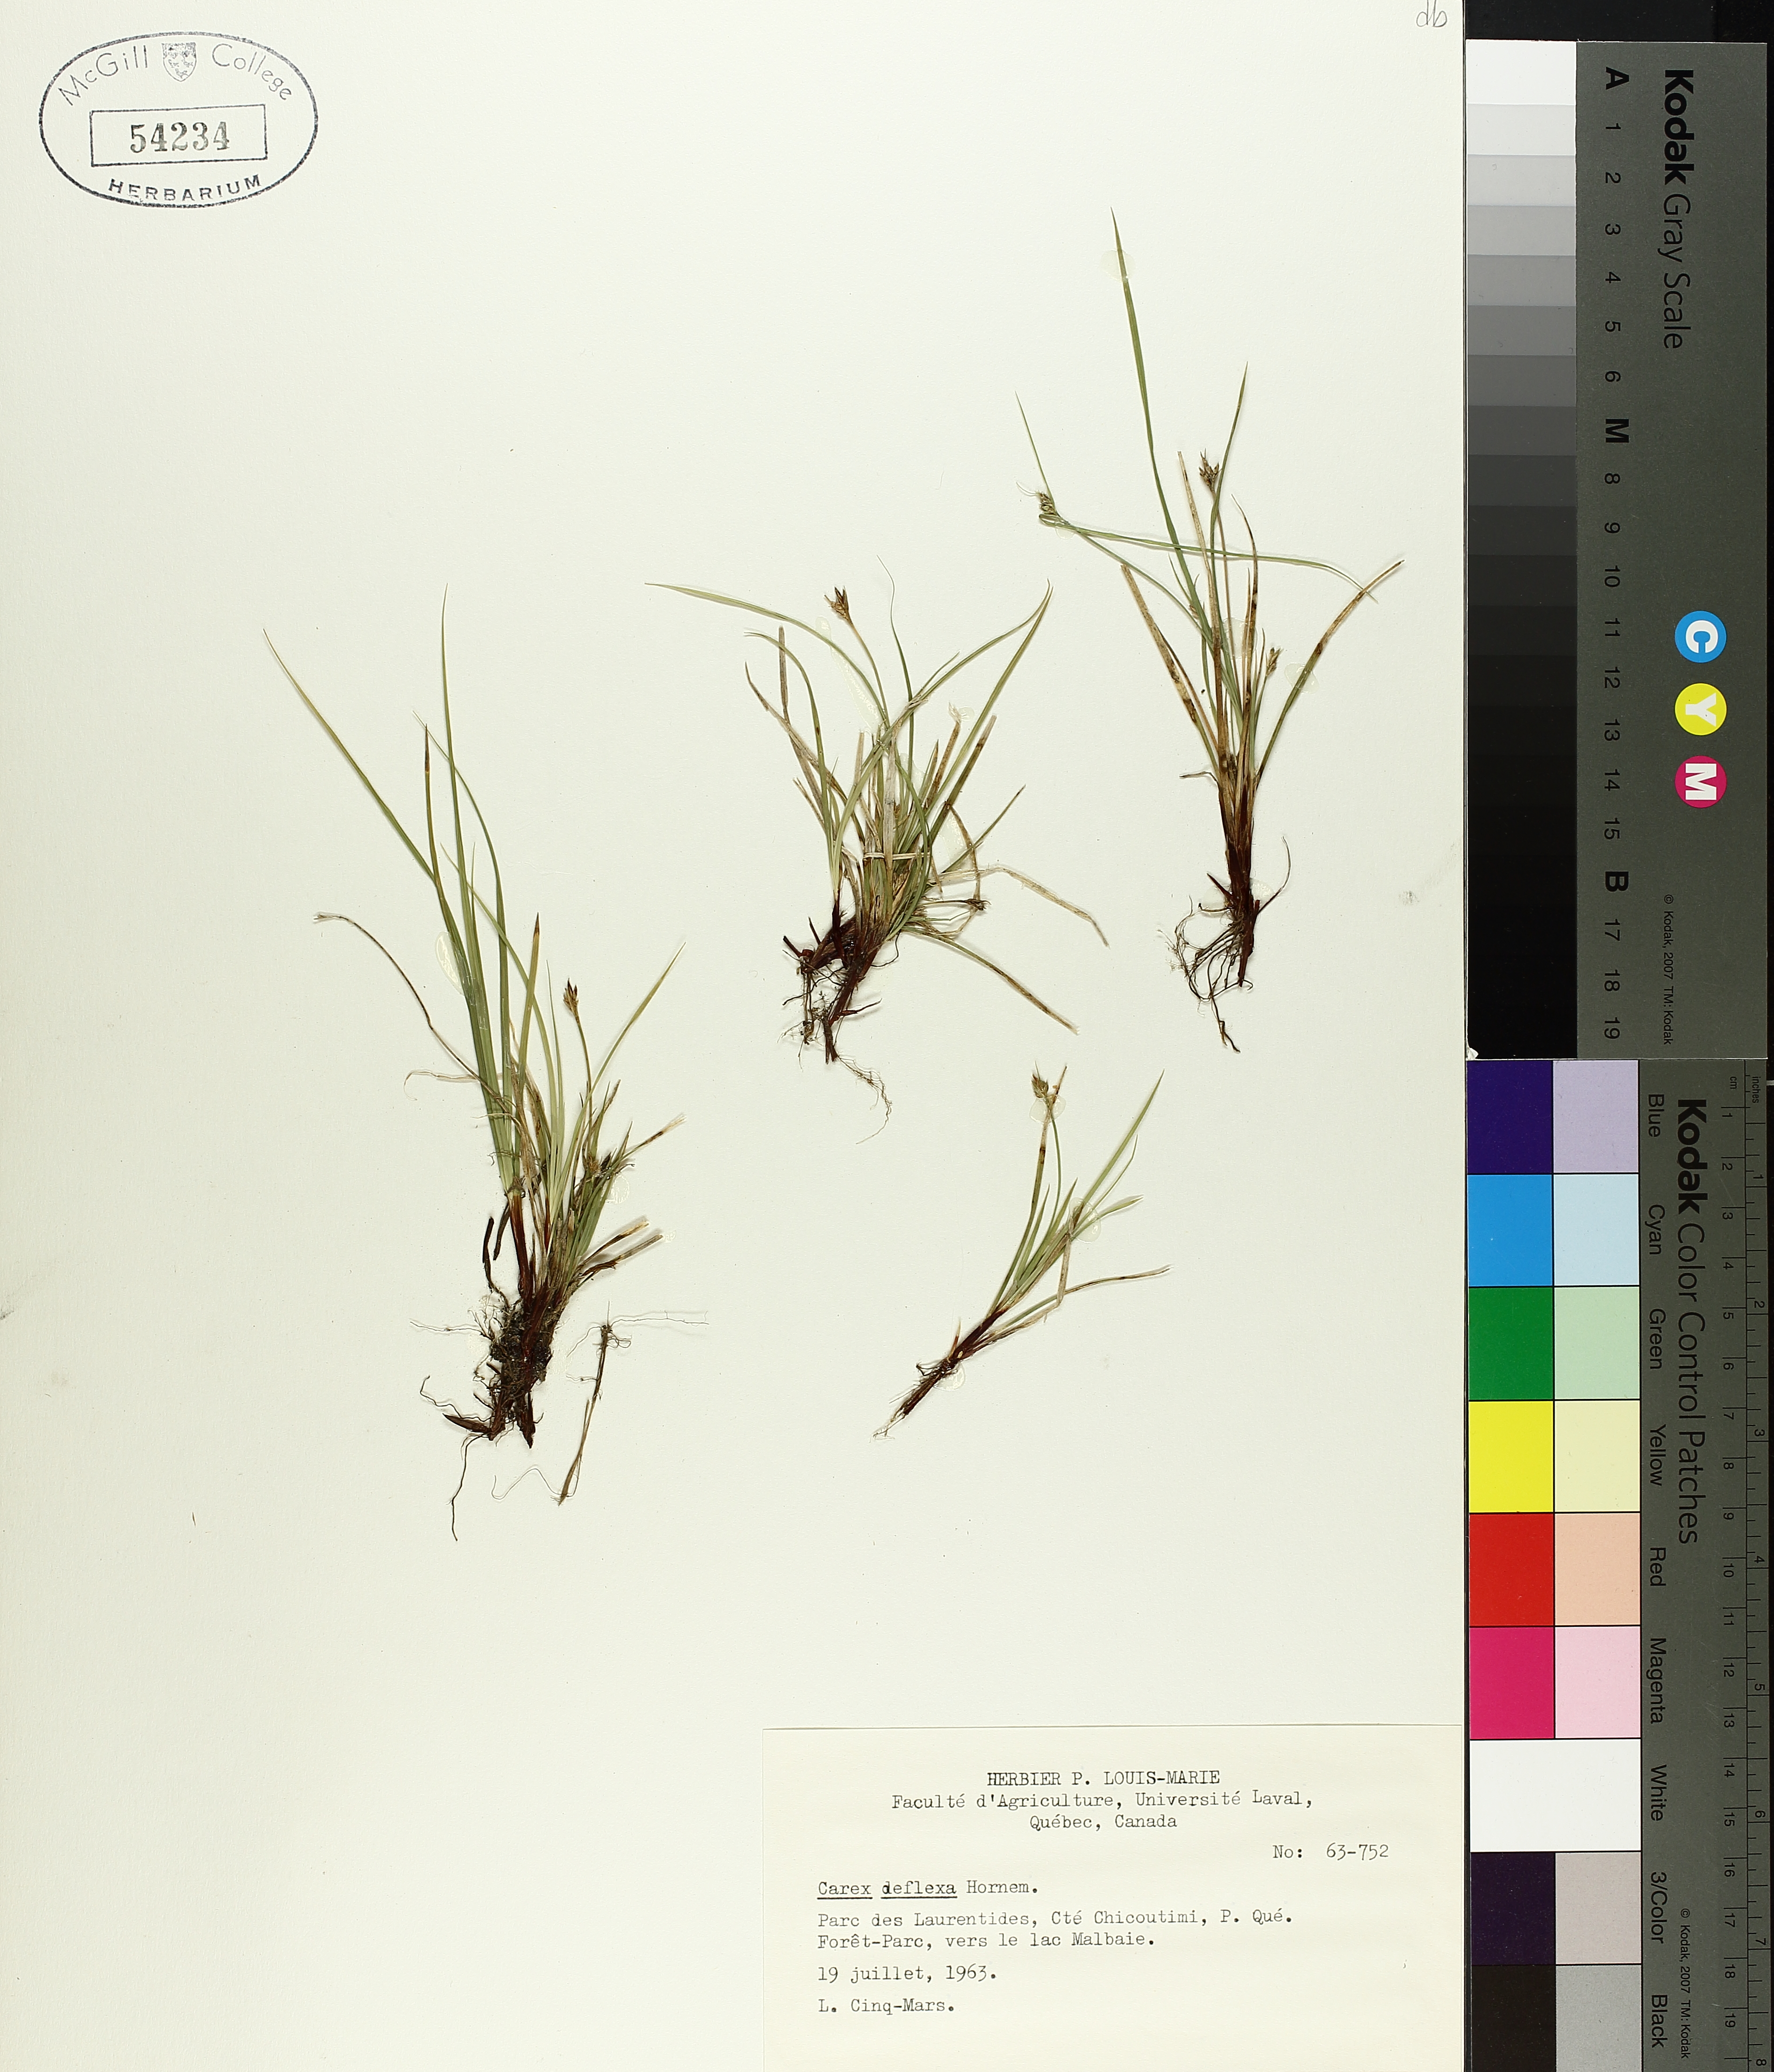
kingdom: Plantae
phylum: Tracheophyta
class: Liliopsida
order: Poales
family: Cyperaceae
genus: Carex
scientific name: Carex deflexa
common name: Bent northern sedge
